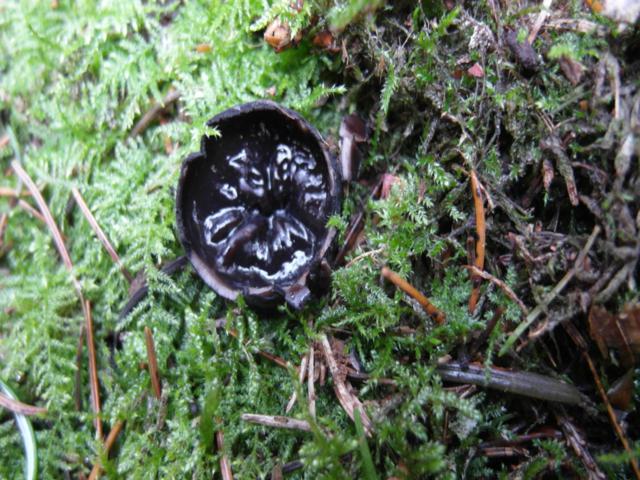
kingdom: Fungi
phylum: Ascomycota
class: Pezizomycetes
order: Pezizales
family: Sarcosomataceae
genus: Pseudoplectania
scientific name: Pseudoplectania nigrella
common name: almindelig sortbæger
